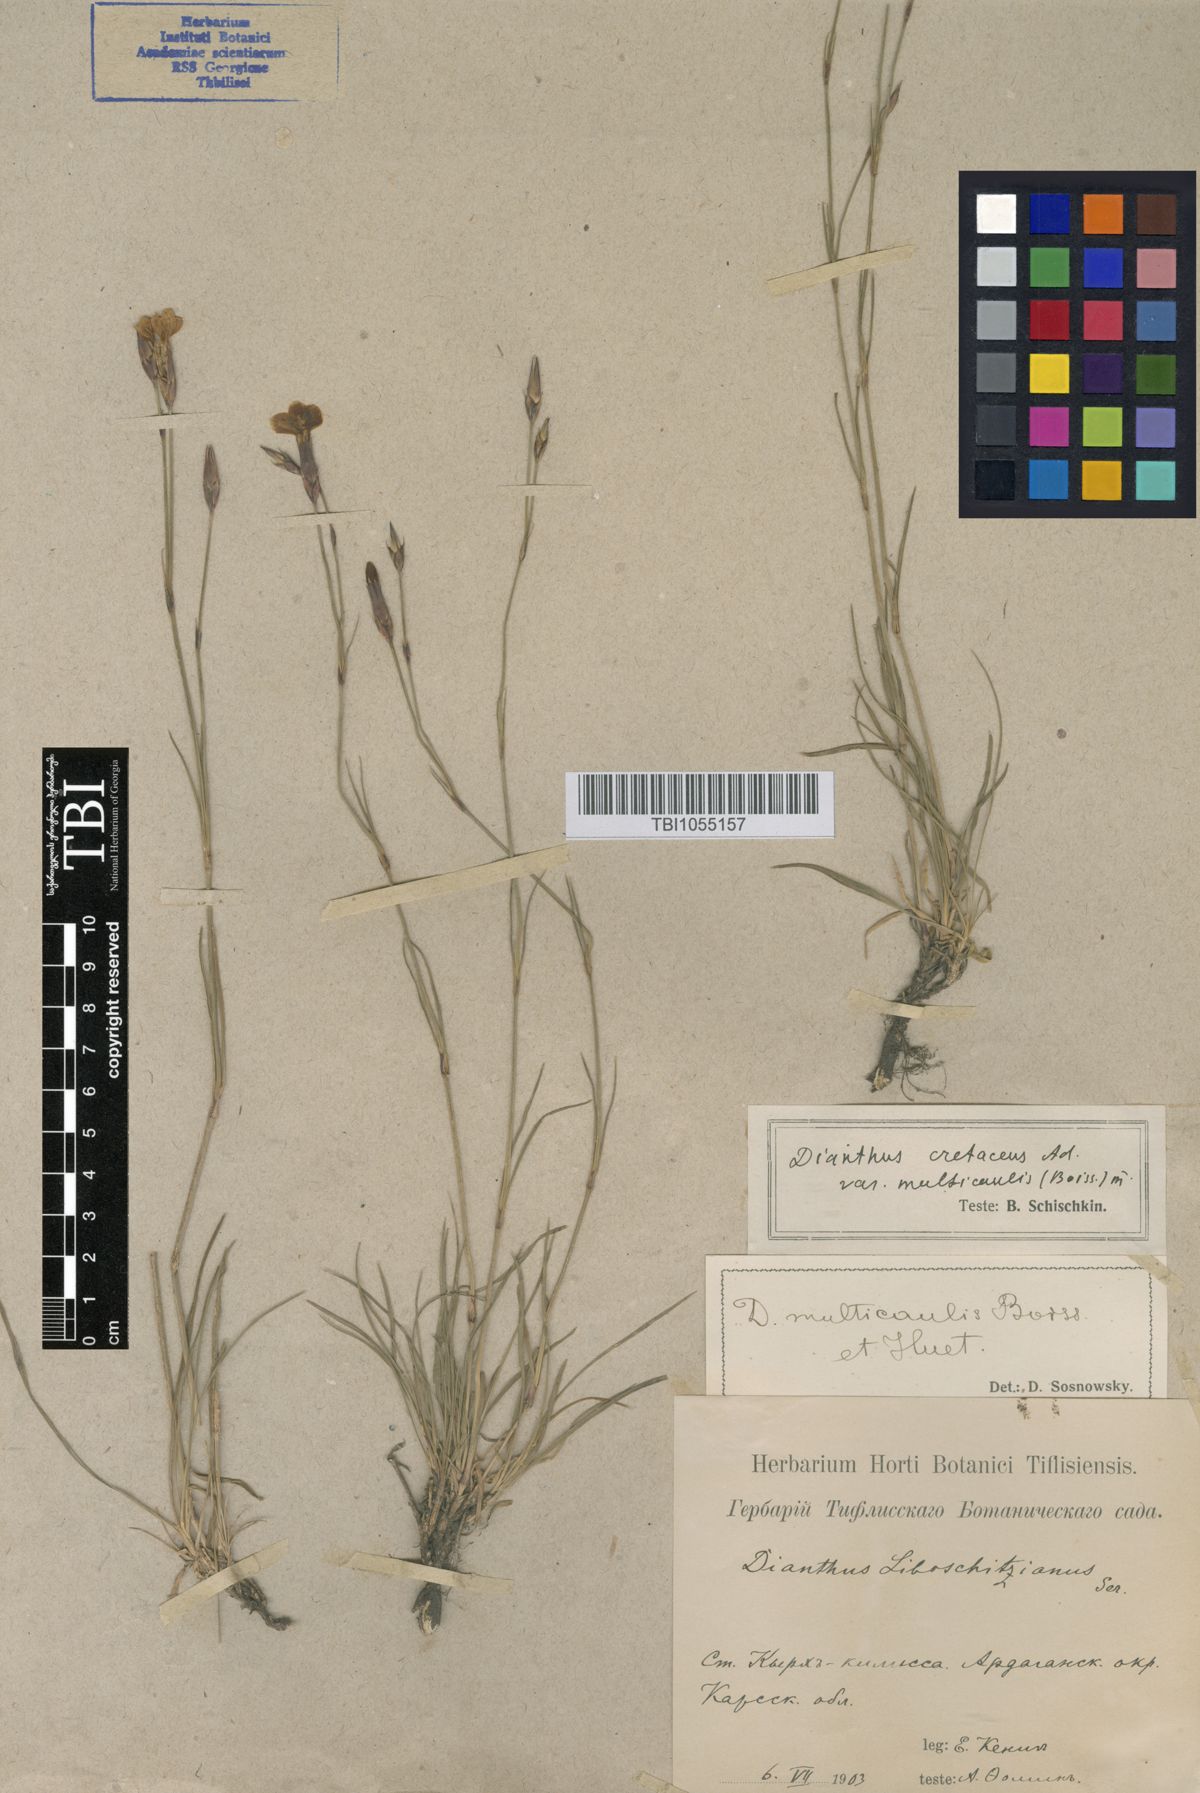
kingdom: Plantae
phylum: Tracheophyta
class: Magnoliopsida
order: Caryophyllales
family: Caryophyllaceae
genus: Dianthus
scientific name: Dianthus cretaceus
